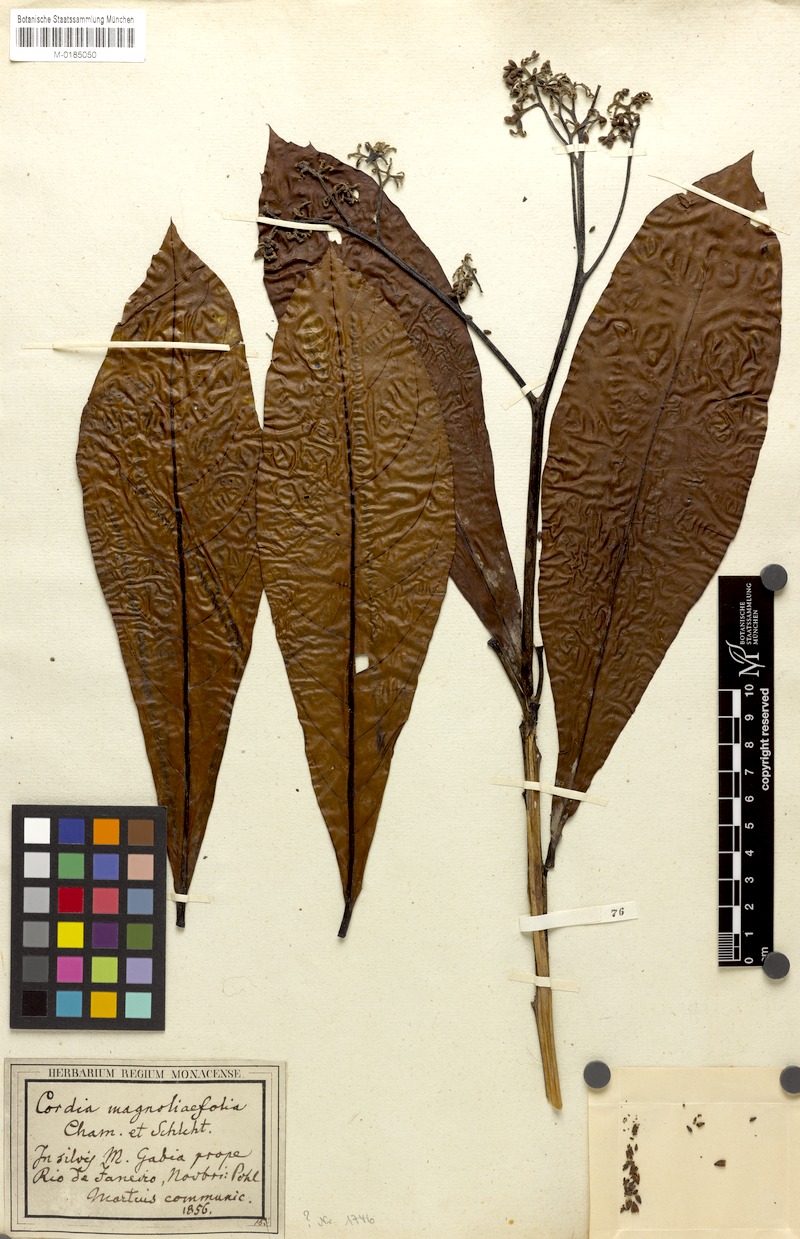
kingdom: Plantae
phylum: Tracheophyta
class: Magnoliopsida
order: Boraginales
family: Cordiaceae
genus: Cordia
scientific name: Cordia magnoliifolia
